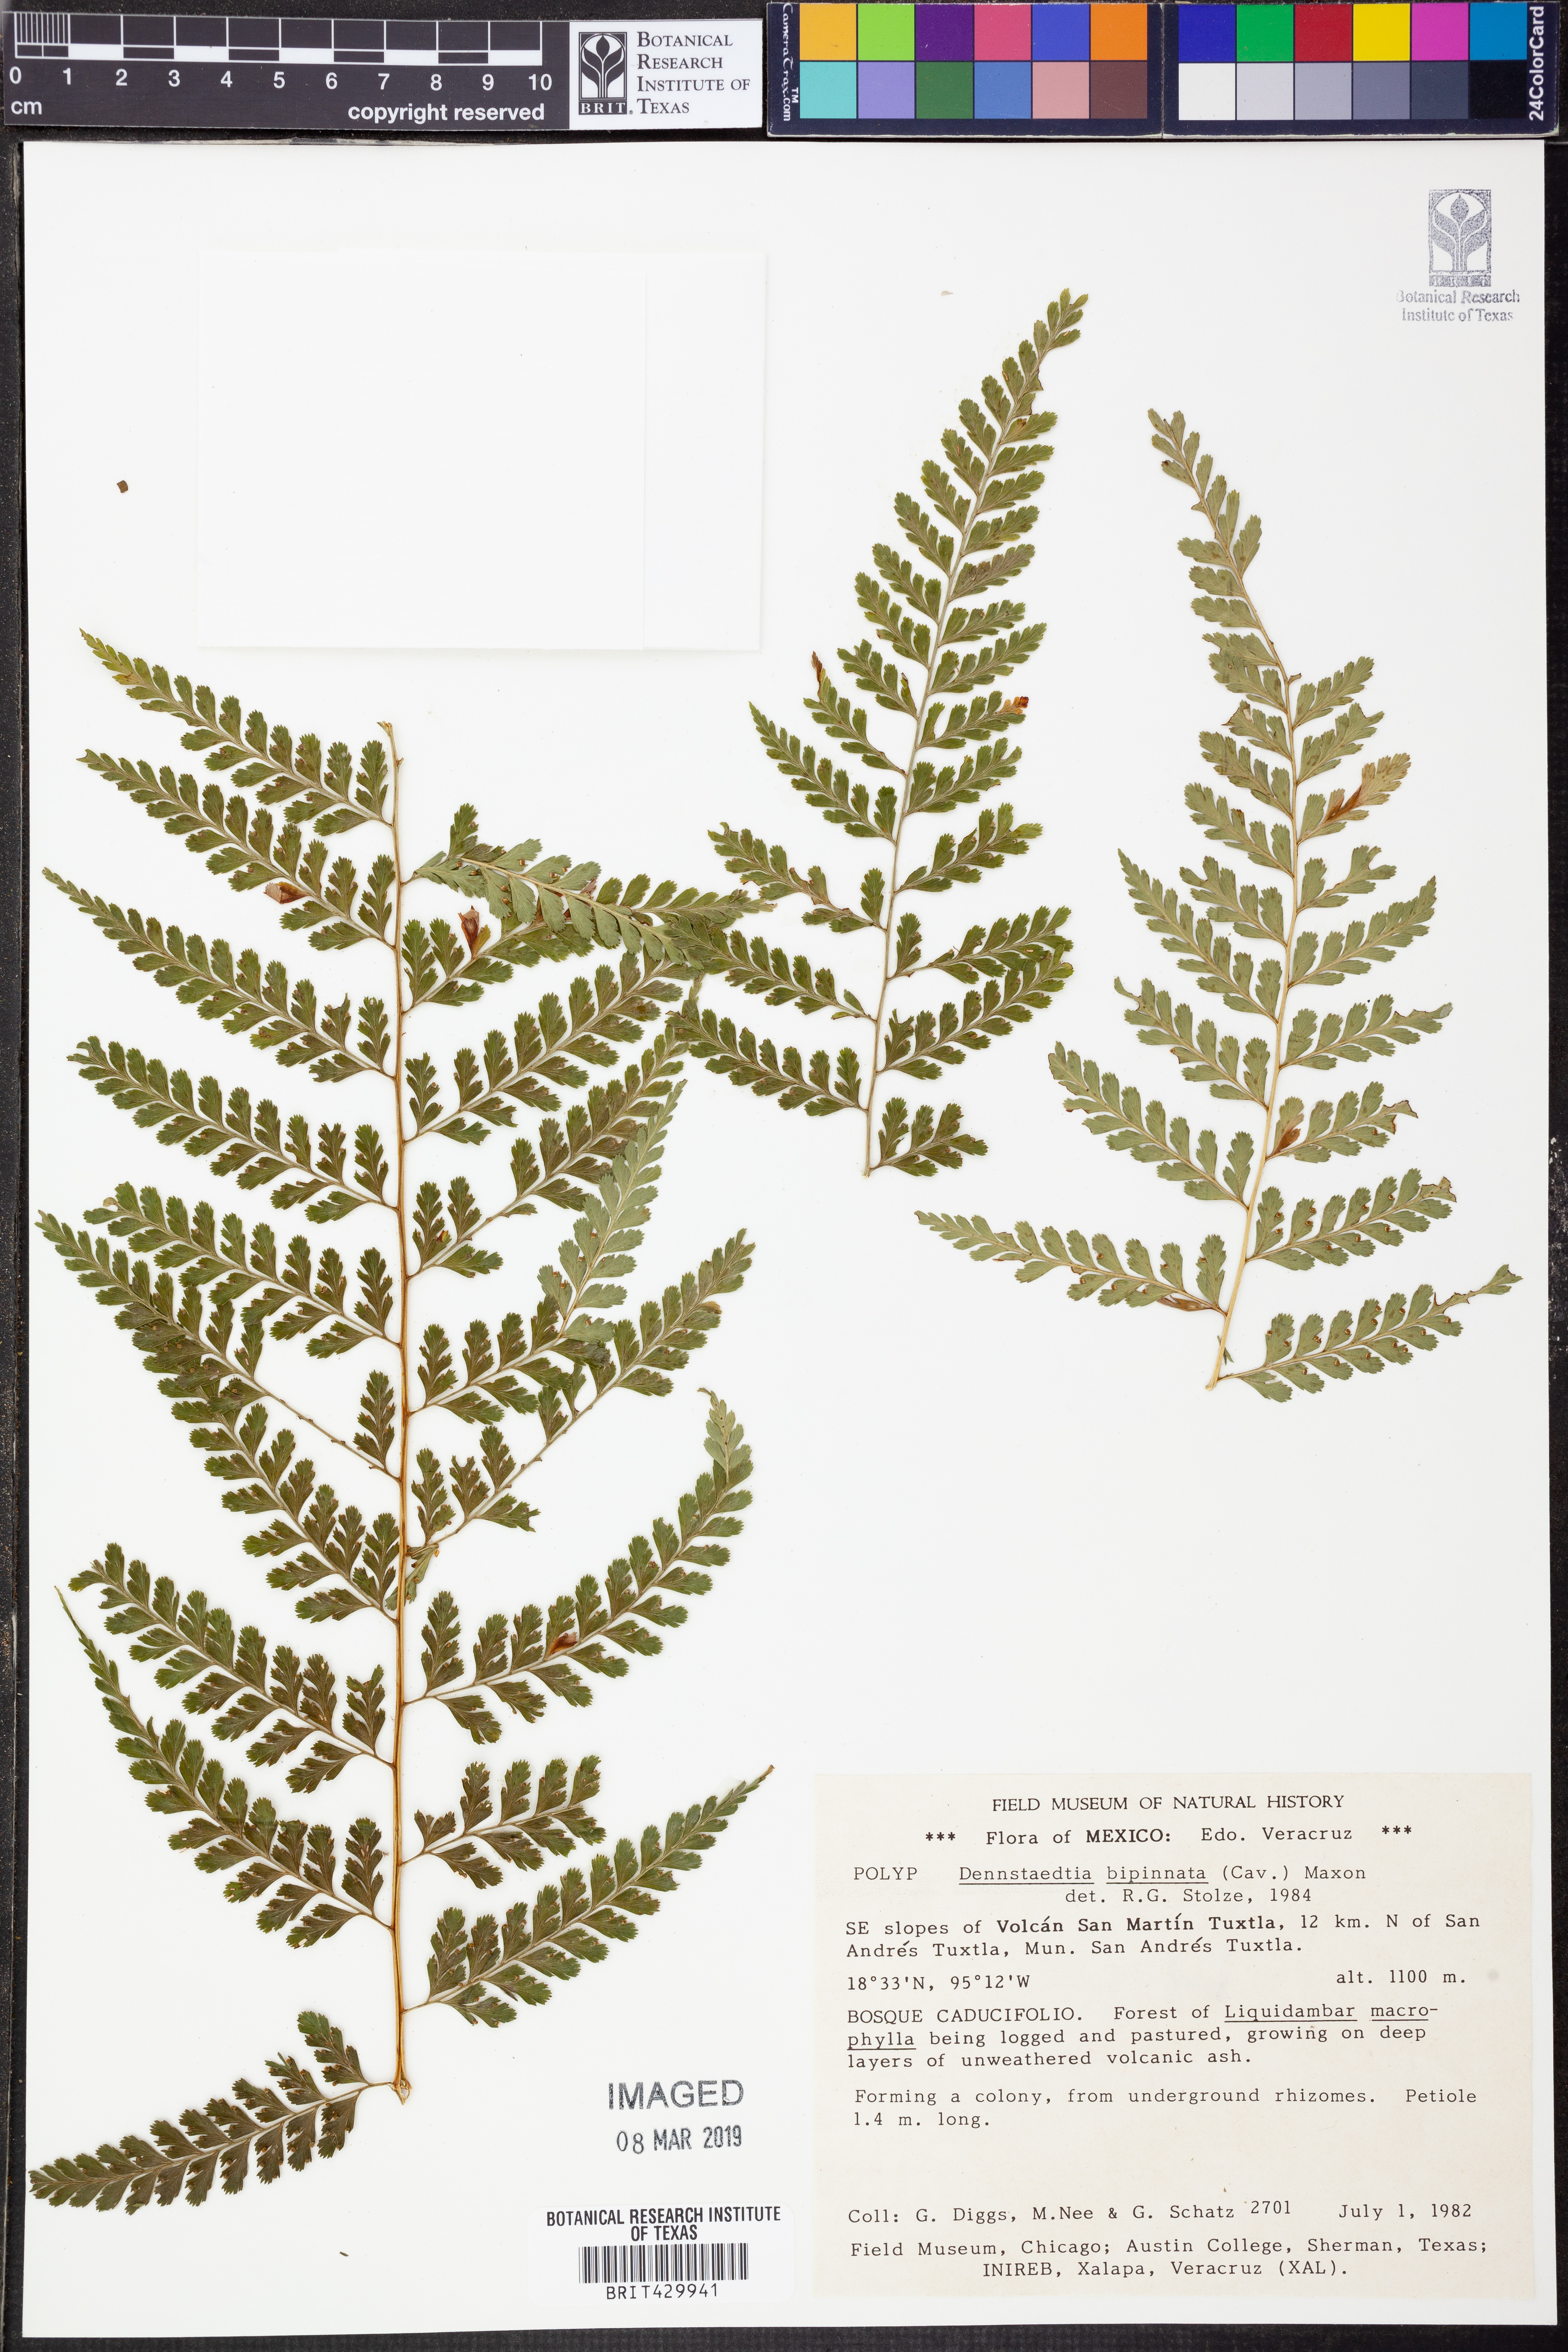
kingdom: Plantae
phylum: Tracheophyta
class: Polypodiopsida
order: Polypodiales
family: Dennstaedtiaceae
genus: Mucura
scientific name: Mucura bipinnata
